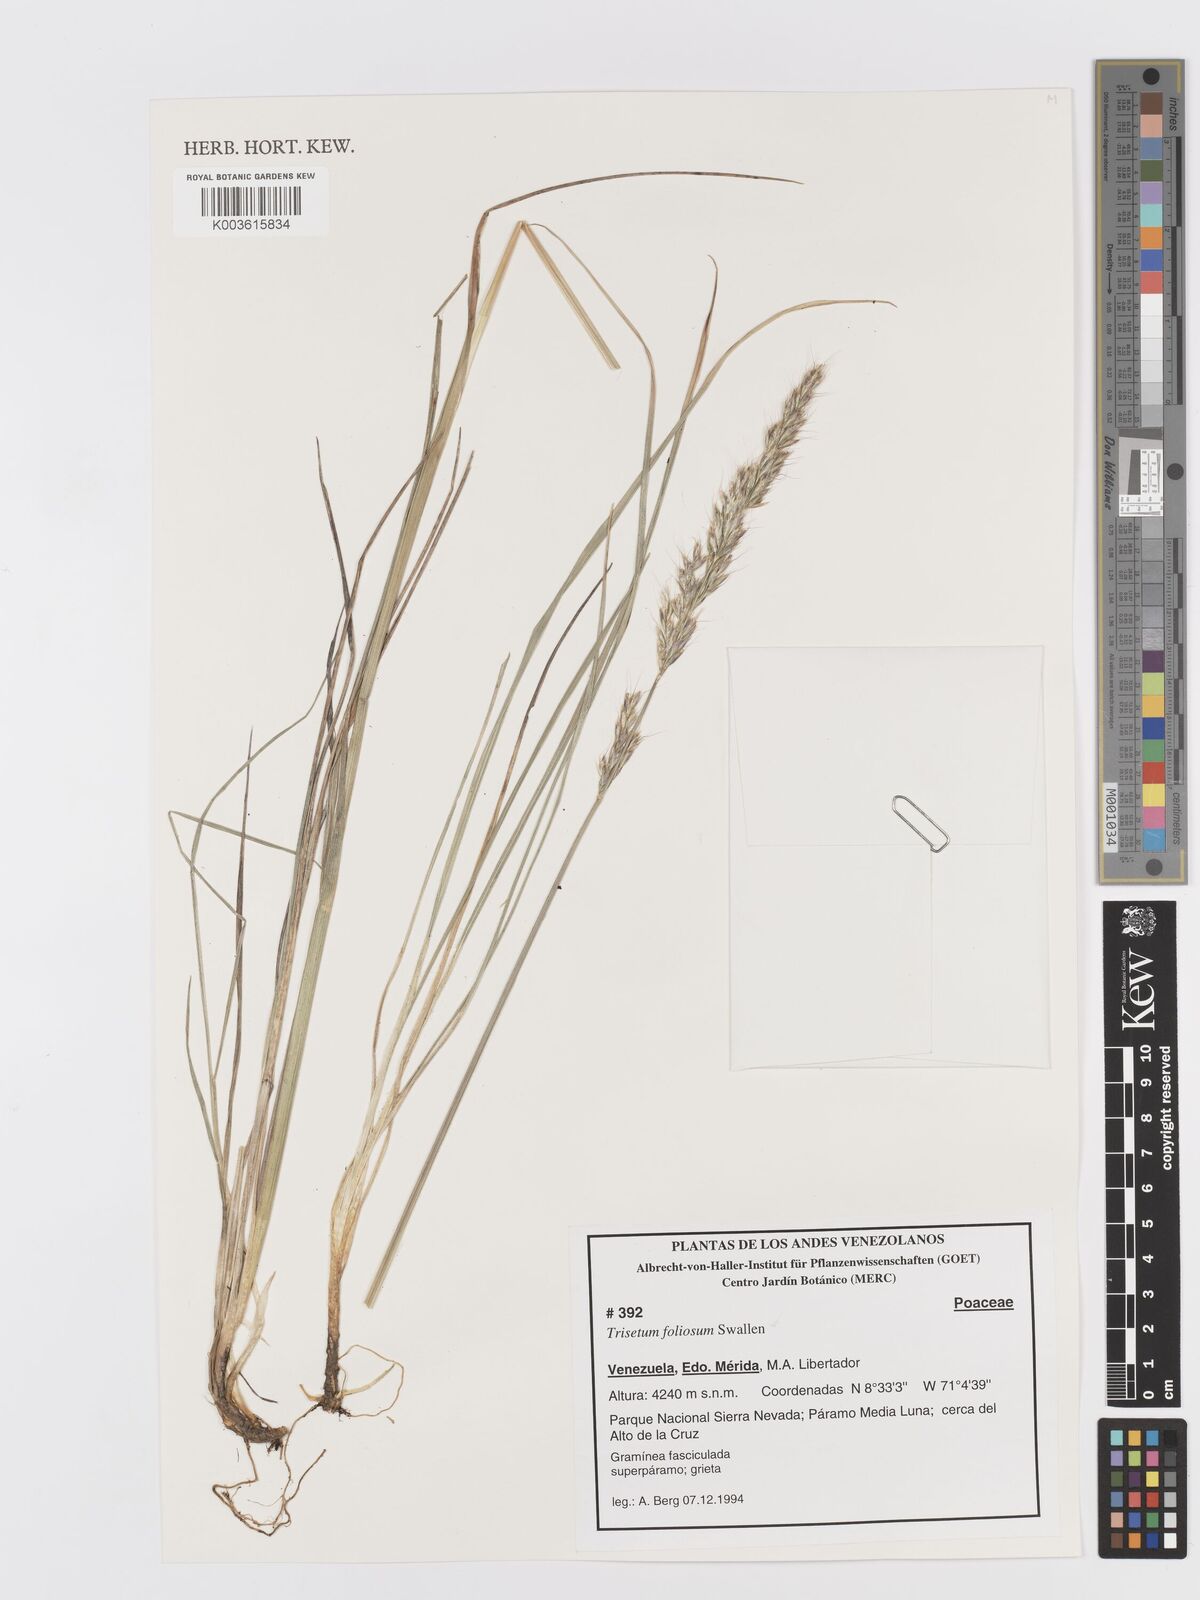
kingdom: Plantae
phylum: Tracheophyta
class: Liliopsida
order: Poales
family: Poaceae
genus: Peyritschia
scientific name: Peyritschia foliosa
